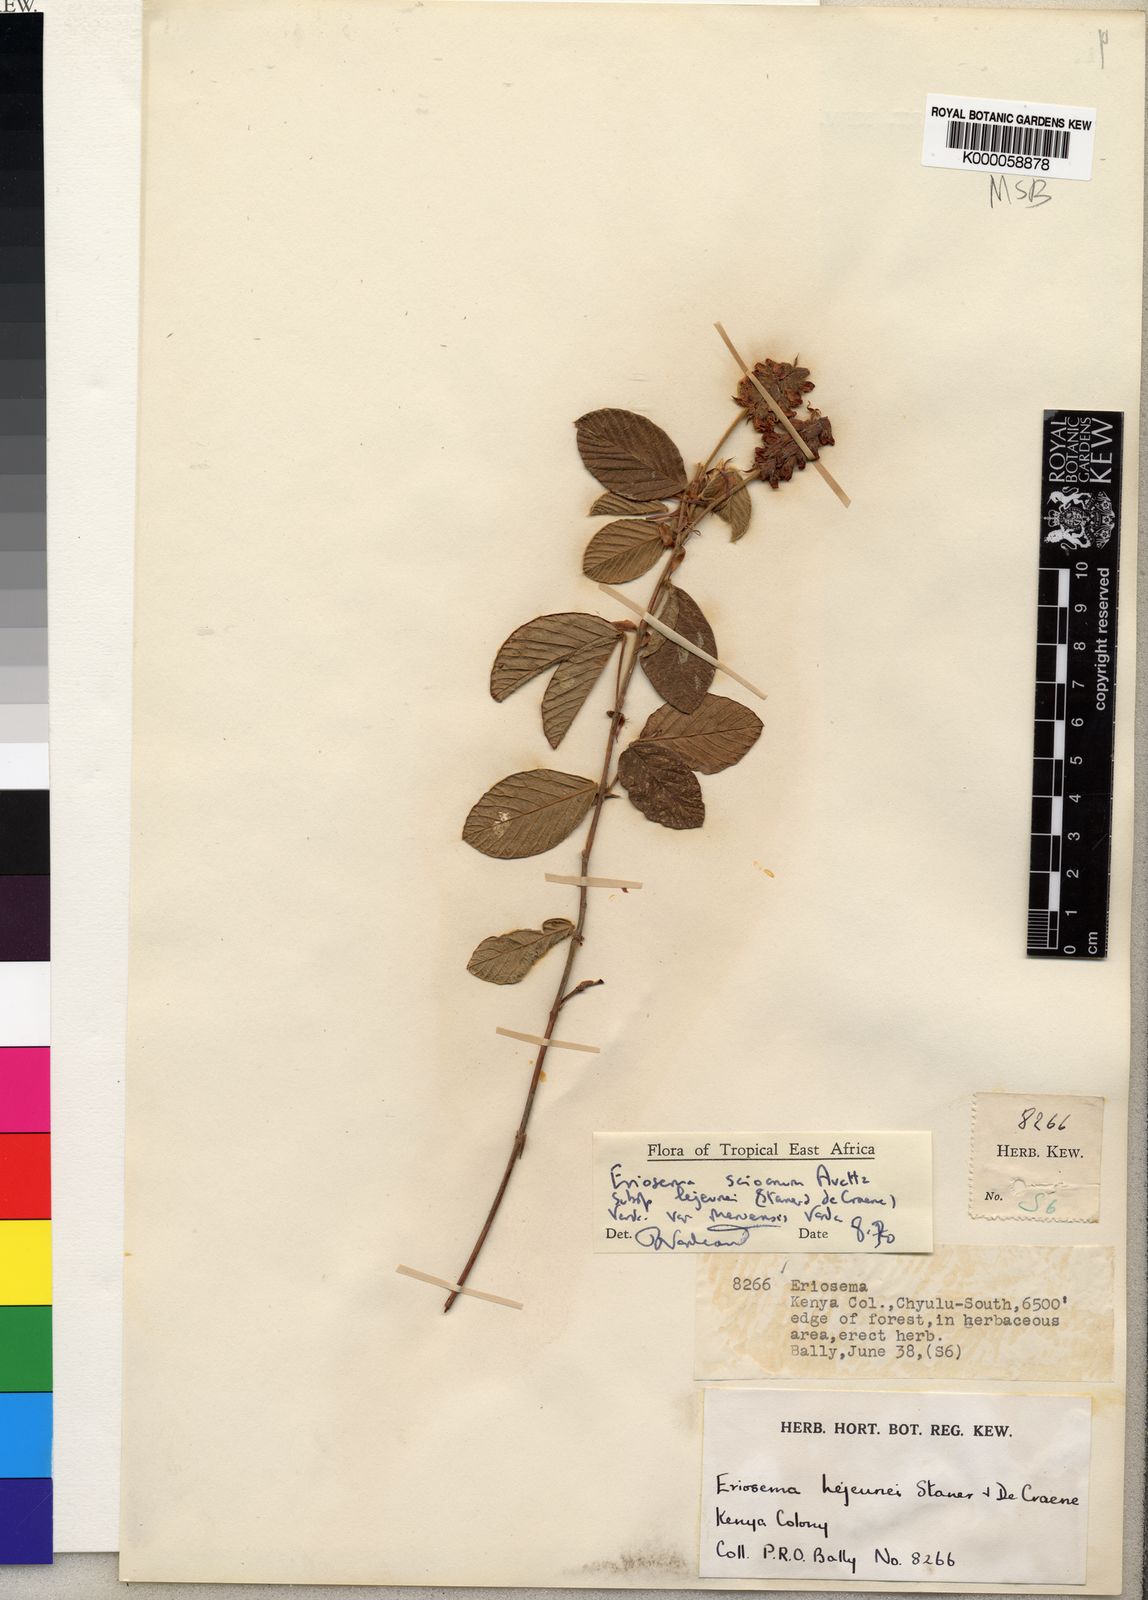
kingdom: Plantae
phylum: Tracheophyta
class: Magnoliopsida
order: Fabales
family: Fabaceae
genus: Eriosema
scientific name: Eriosema scioanum
